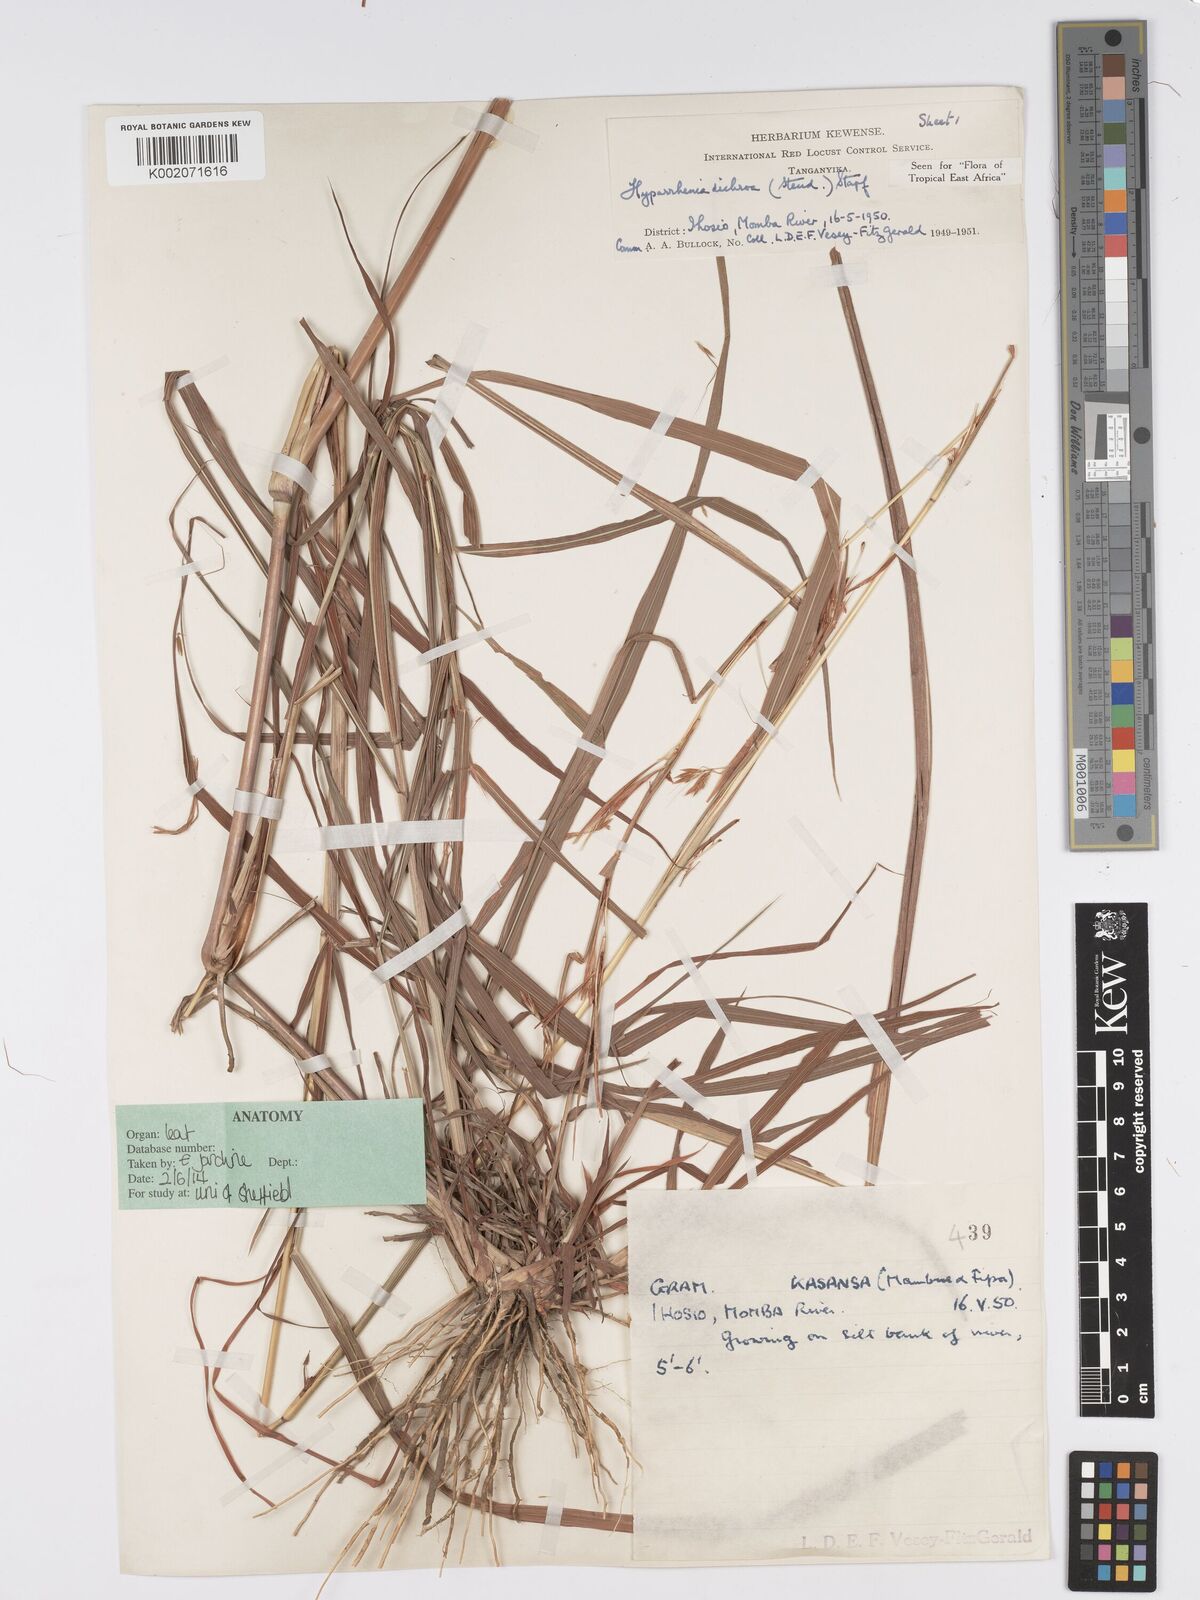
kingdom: Plantae
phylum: Tracheophyta
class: Liliopsida
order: Poales
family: Poaceae
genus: Hyparrhenia
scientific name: Hyparrhenia dichroa
